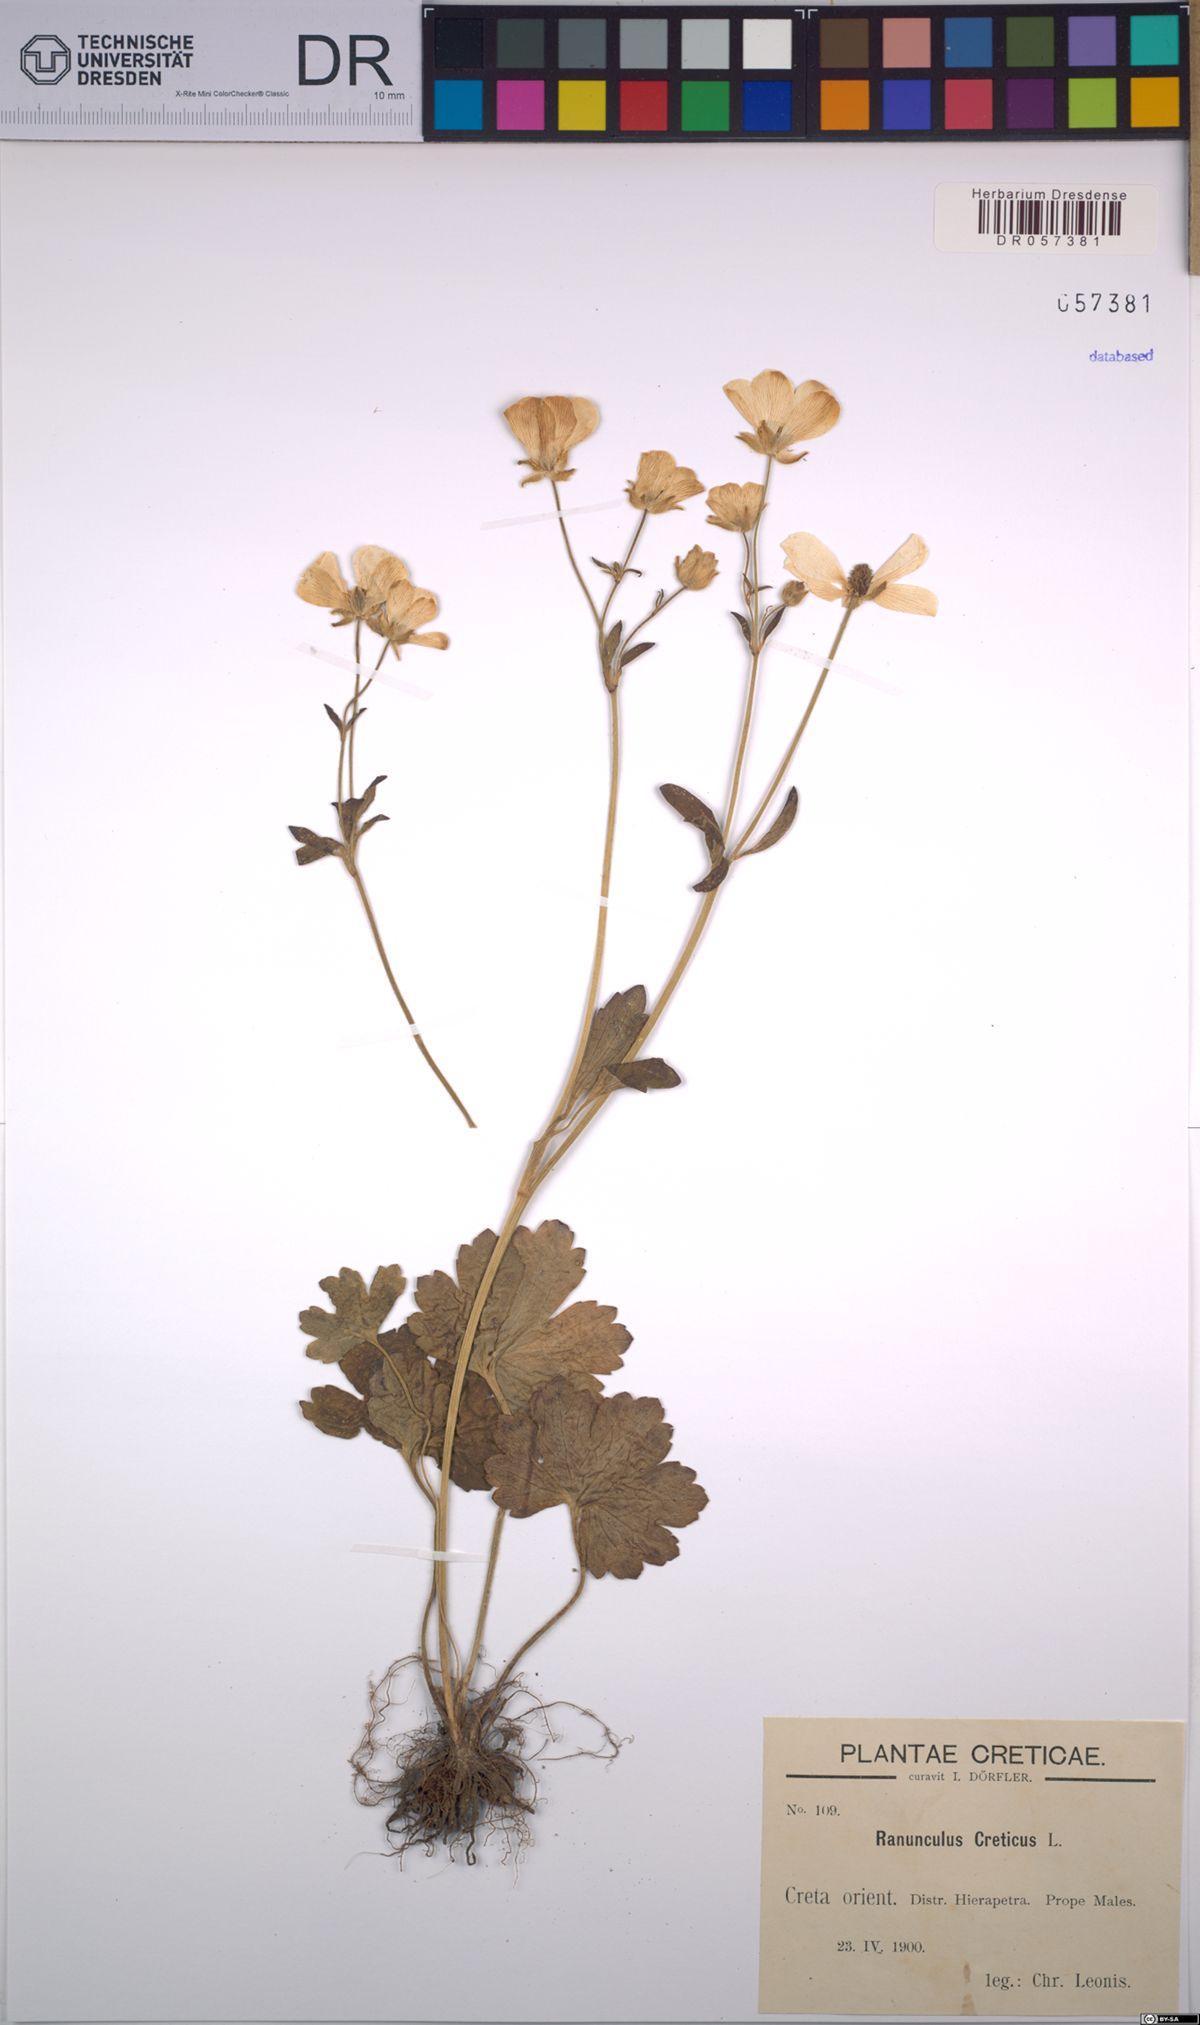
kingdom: Plantae
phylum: Tracheophyta
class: Magnoliopsida
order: Ranunculales
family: Ranunculaceae
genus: Ranunculus
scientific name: Ranunculus creticus
